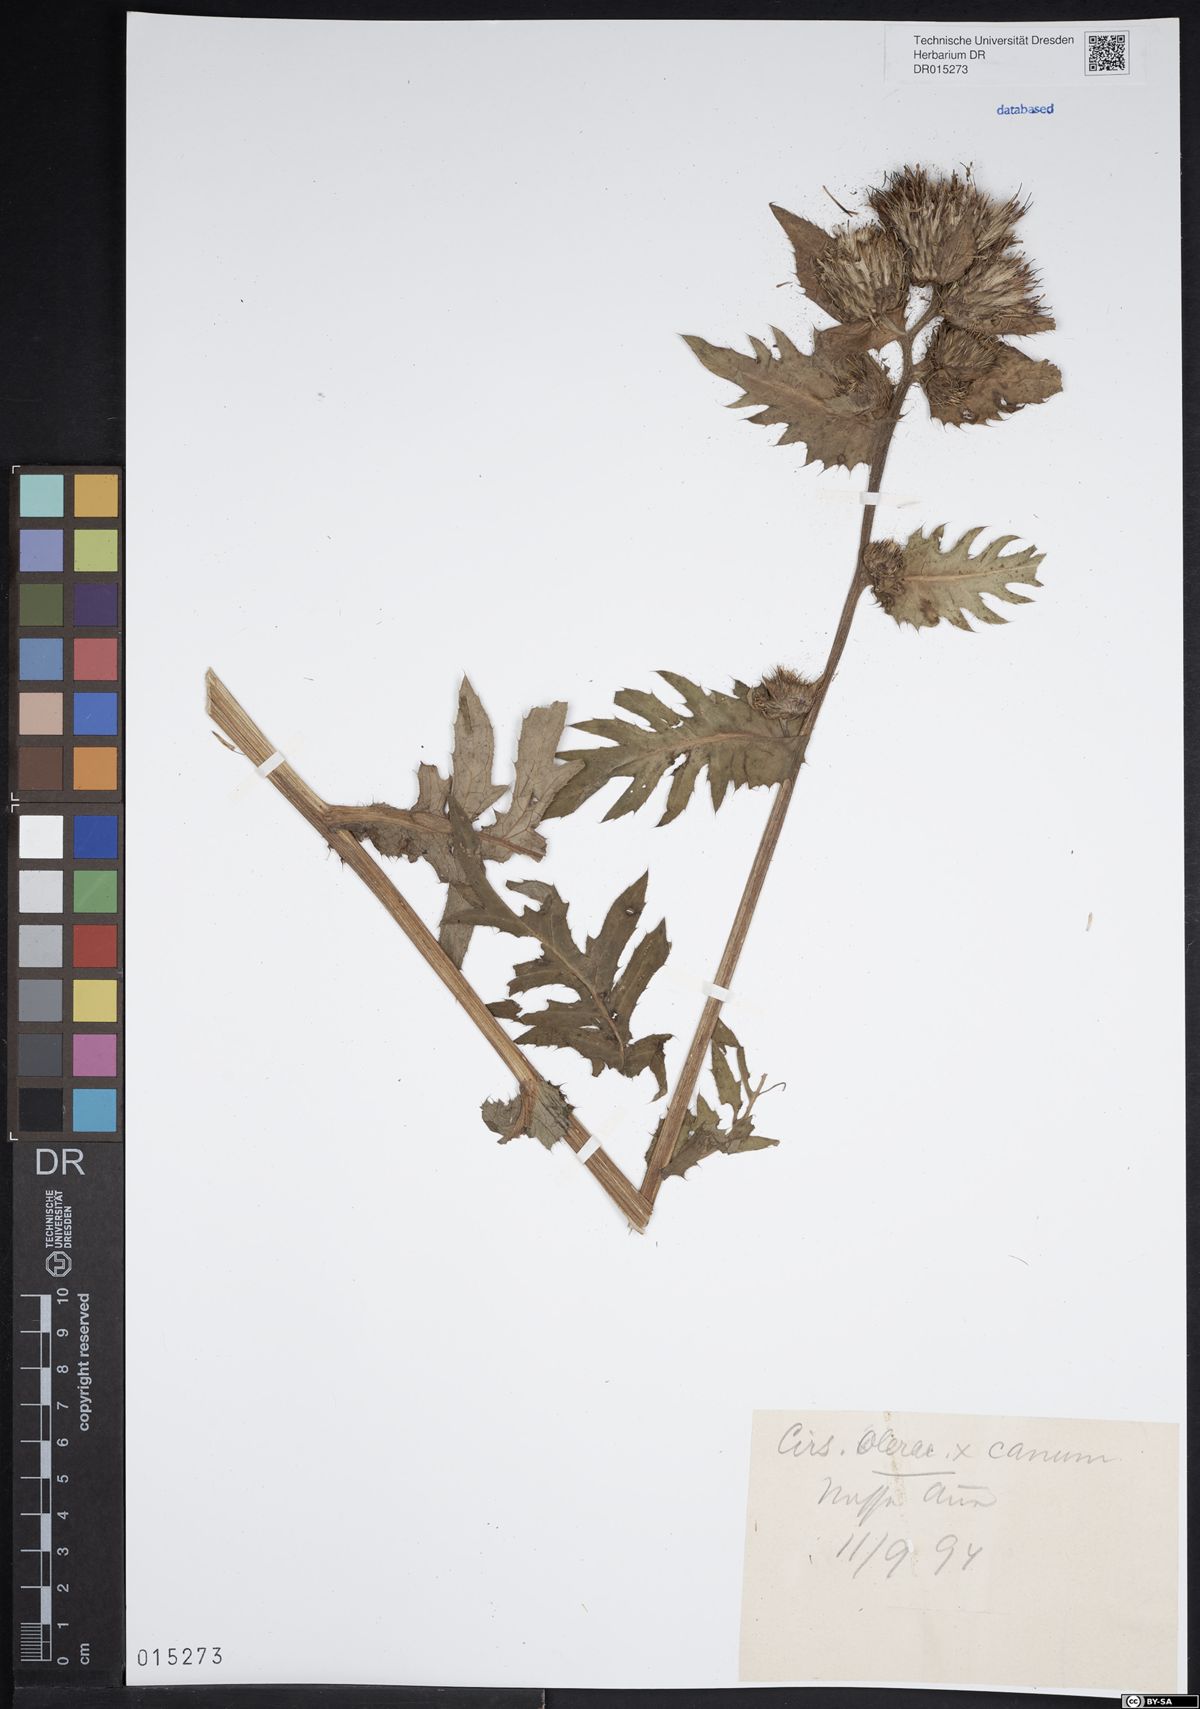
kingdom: Plantae
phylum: Tracheophyta
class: Magnoliopsida
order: Asterales
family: Asteraceae
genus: Cirsium
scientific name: Cirsium tataricum
